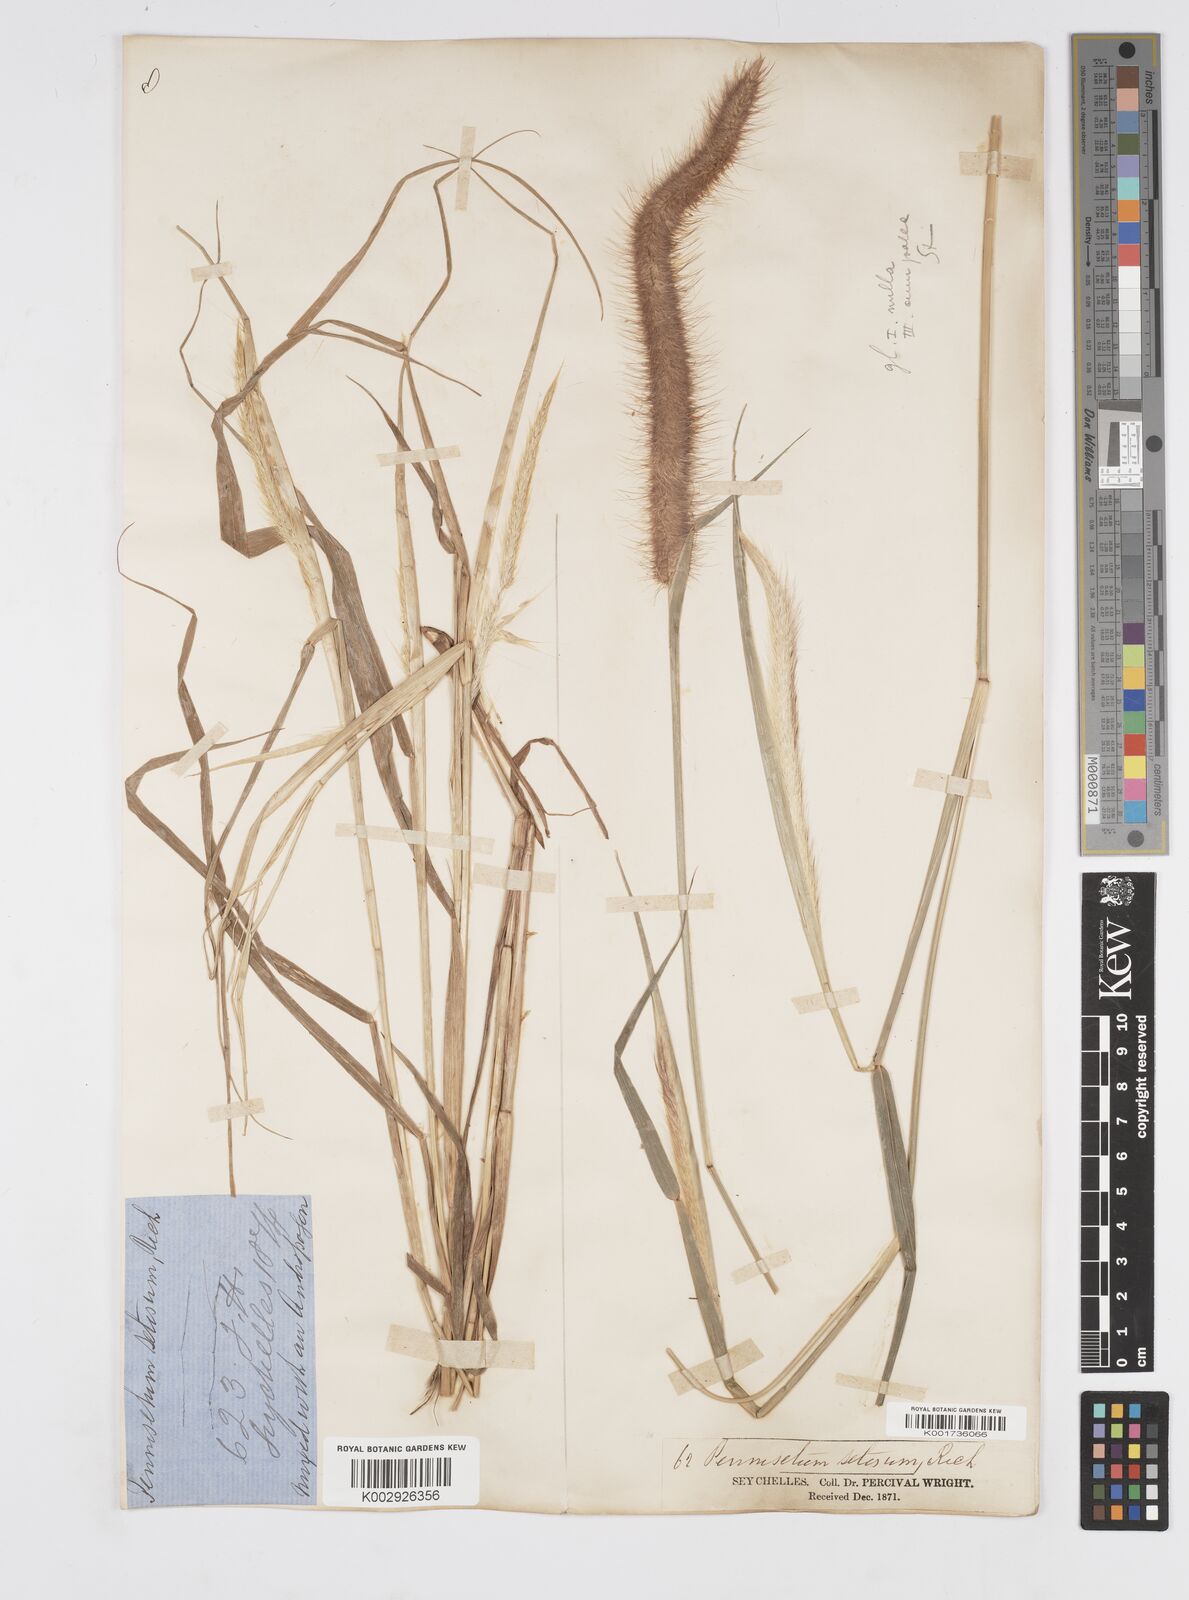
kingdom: Plantae
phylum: Tracheophyta
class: Liliopsida
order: Poales
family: Poaceae
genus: Setaria
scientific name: Setaria parviflora
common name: Knotroot bristle-grass
